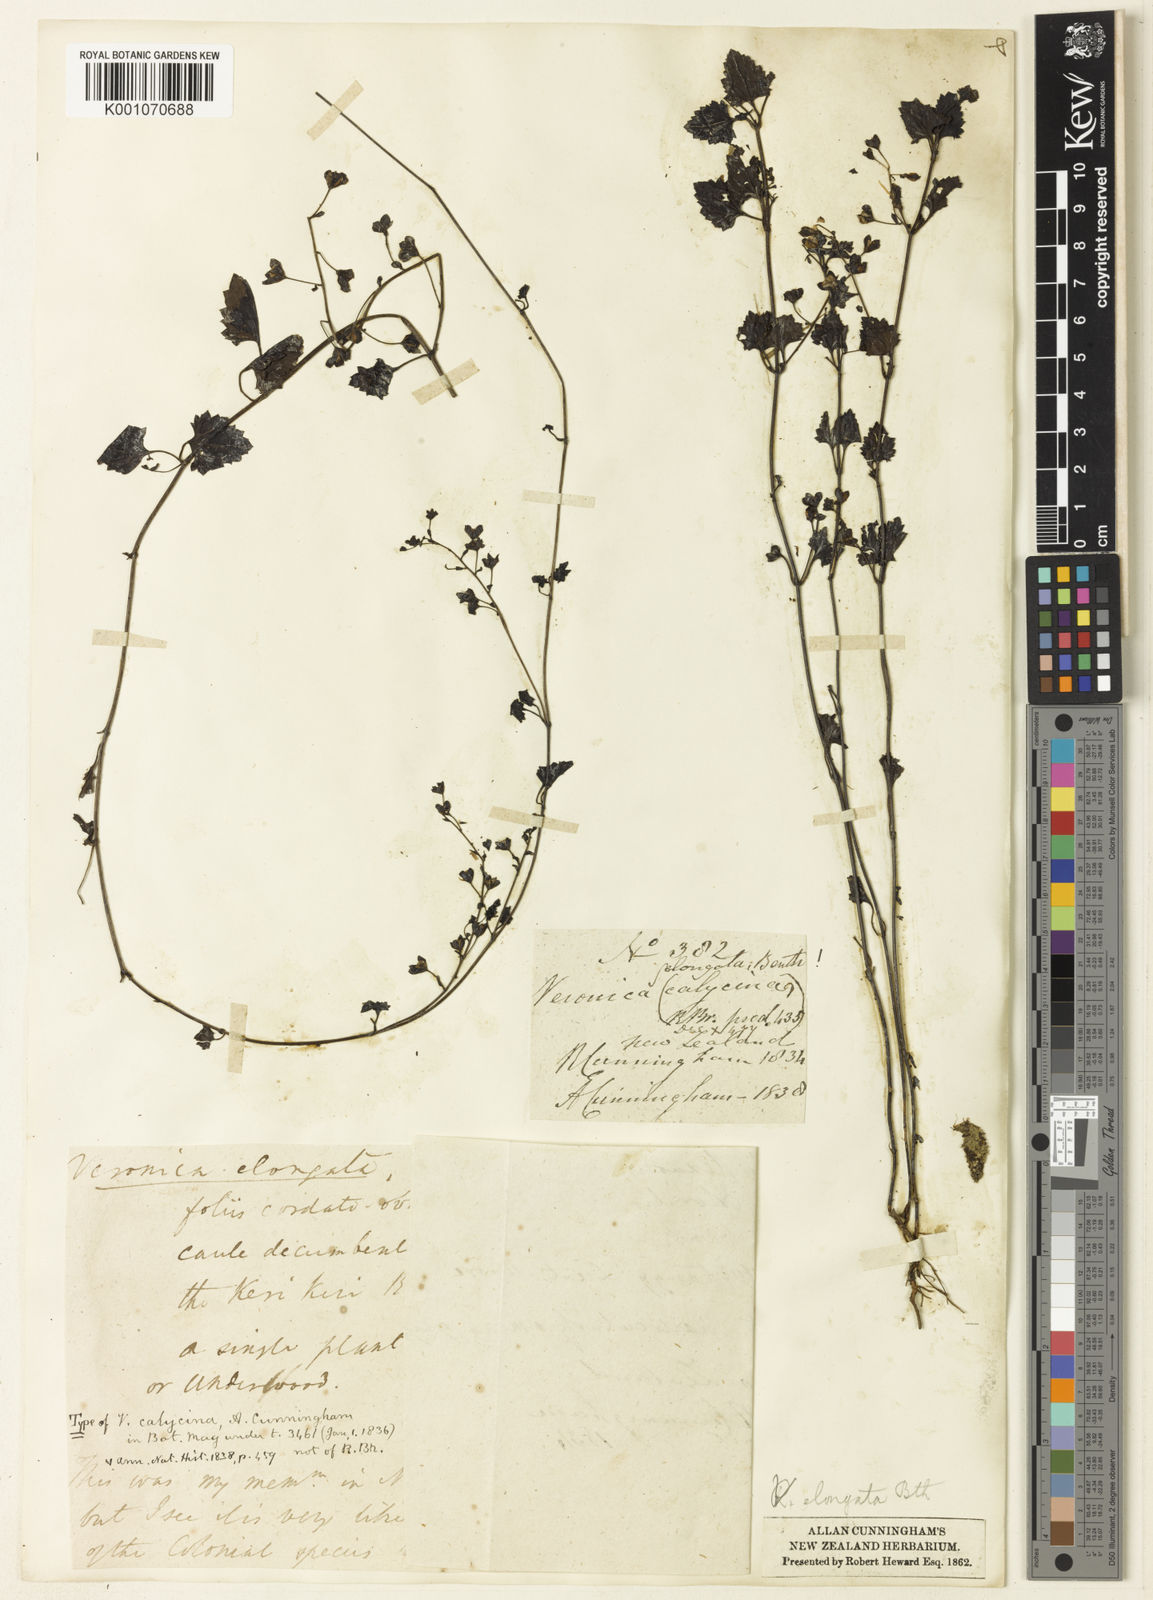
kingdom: Plantae
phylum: Tracheophyta
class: Magnoliopsida
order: Lamiales
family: Plantaginaceae
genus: Veronica
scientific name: Veronica
